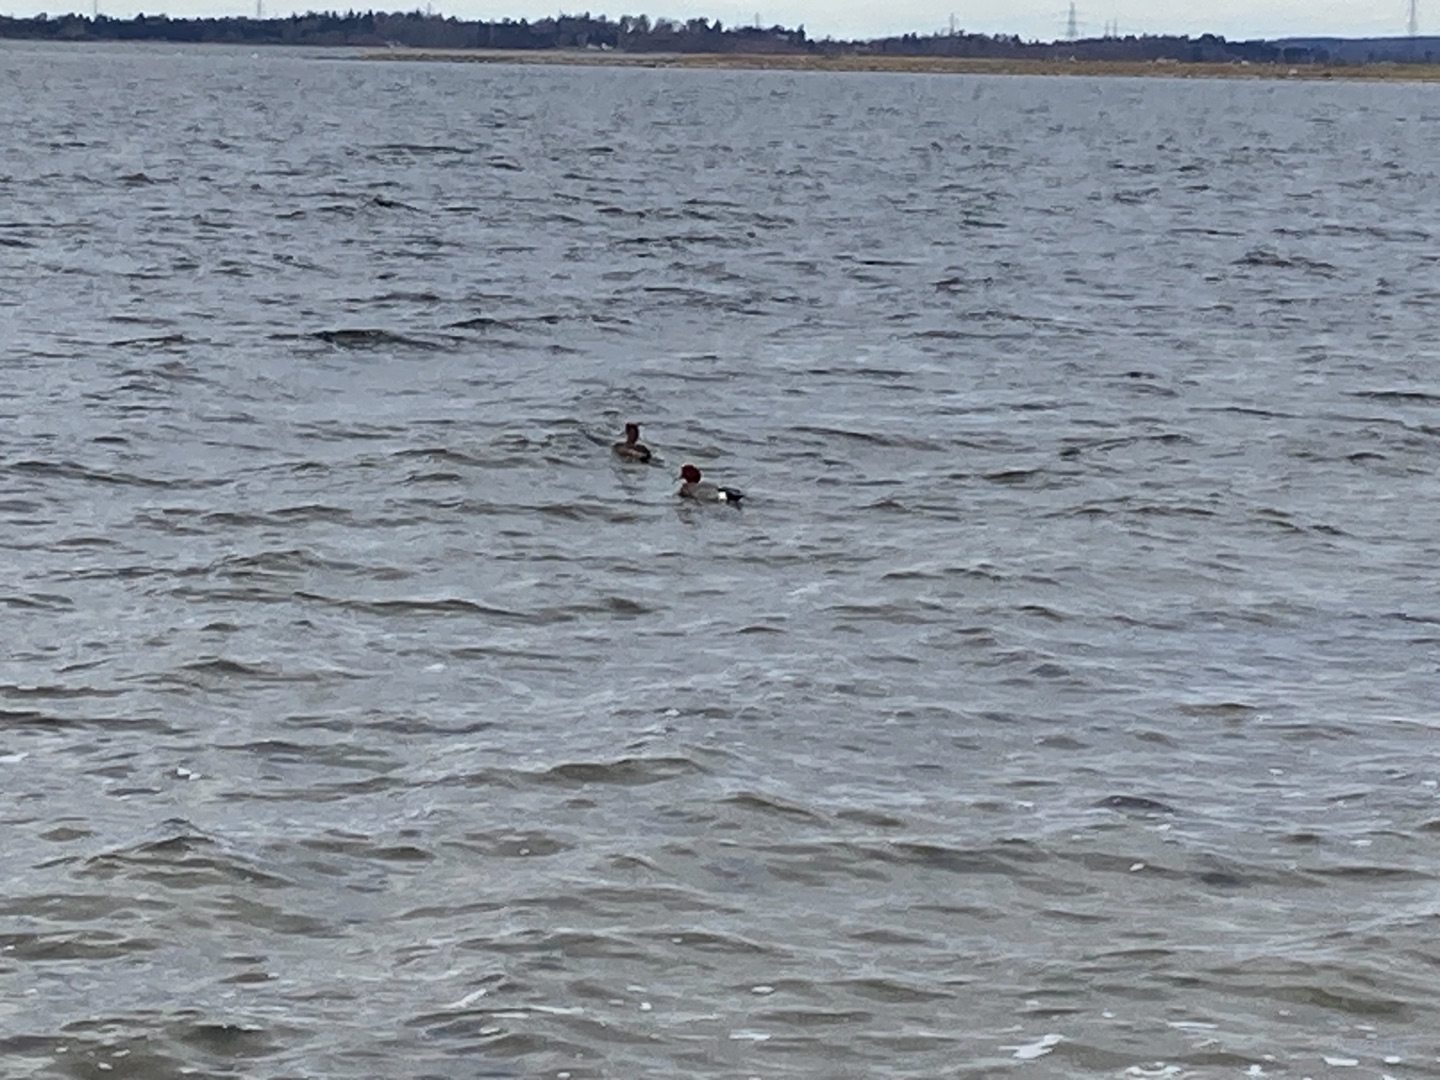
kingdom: Animalia
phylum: Chordata
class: Aves
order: Anseriformes
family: Anatidae
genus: Mareca
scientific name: Mareca penelope
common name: Pibeand
